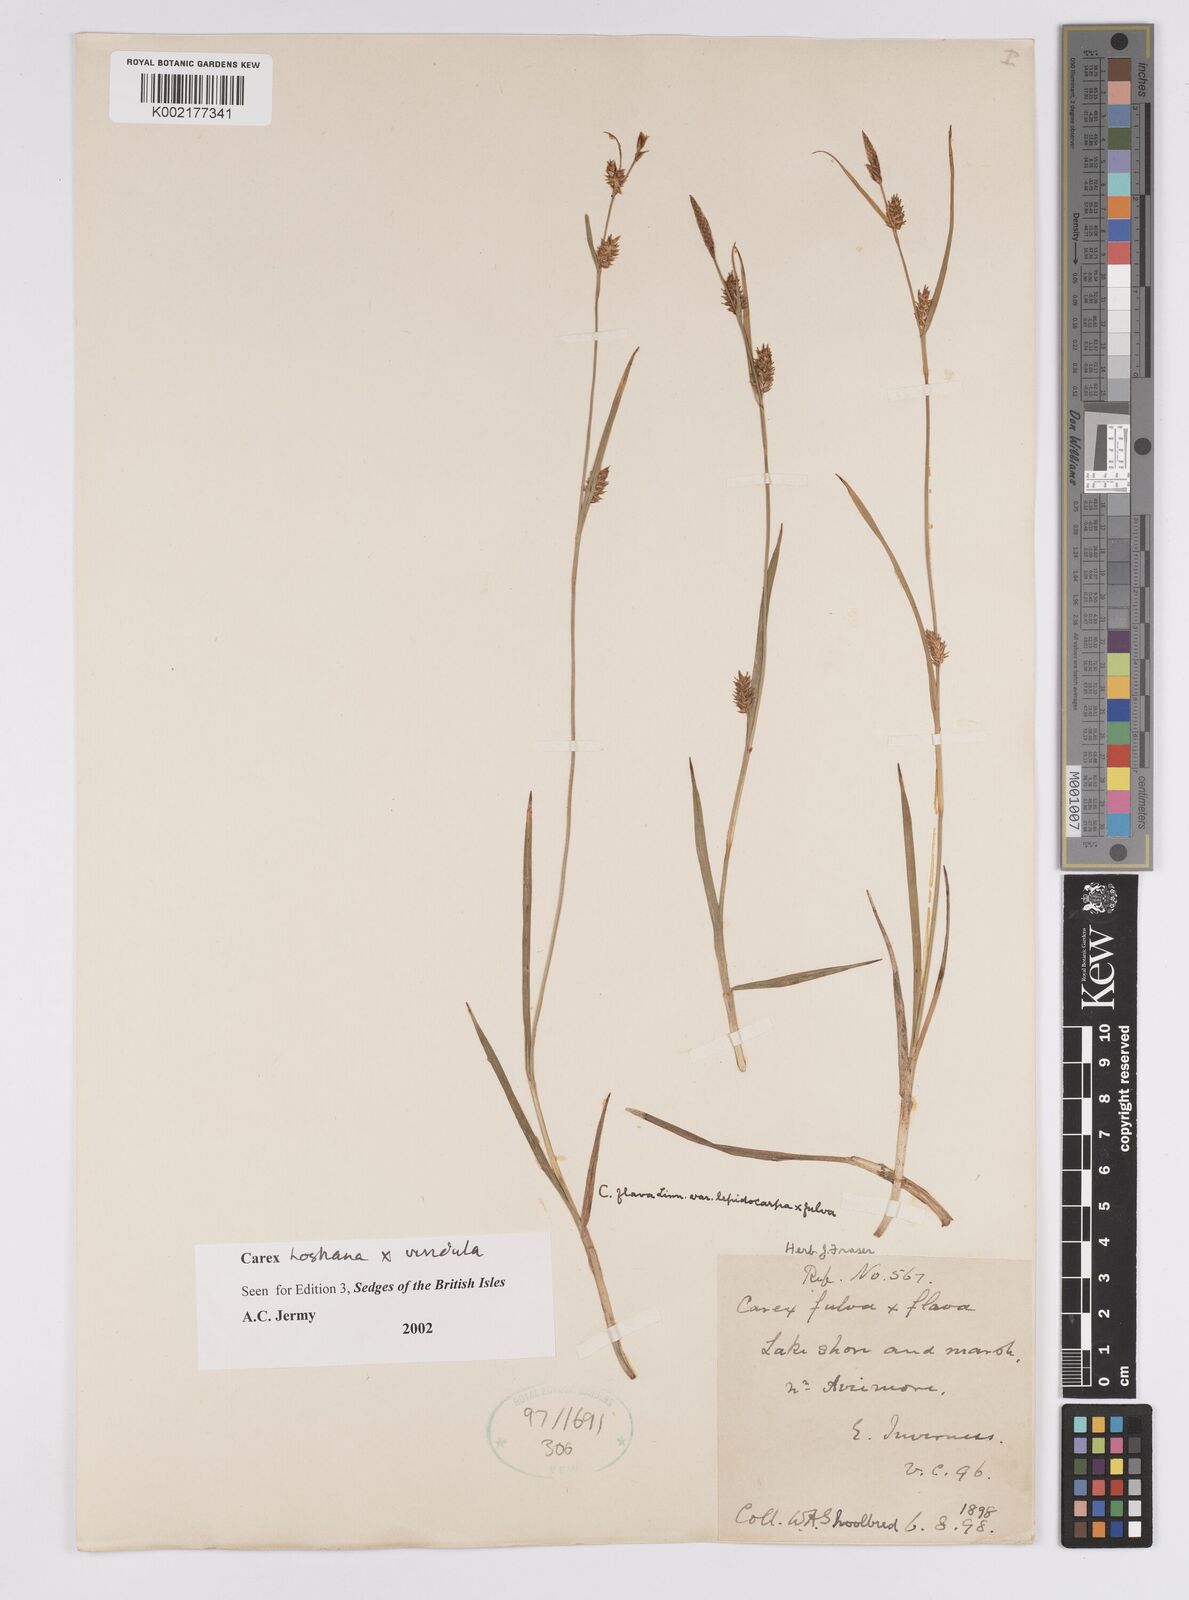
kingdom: Plantae
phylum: Tracheophyta
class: Liliopsida
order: Poales
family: Cyperaceae
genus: Carex
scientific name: Carex hostiana
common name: Tawny sedge
